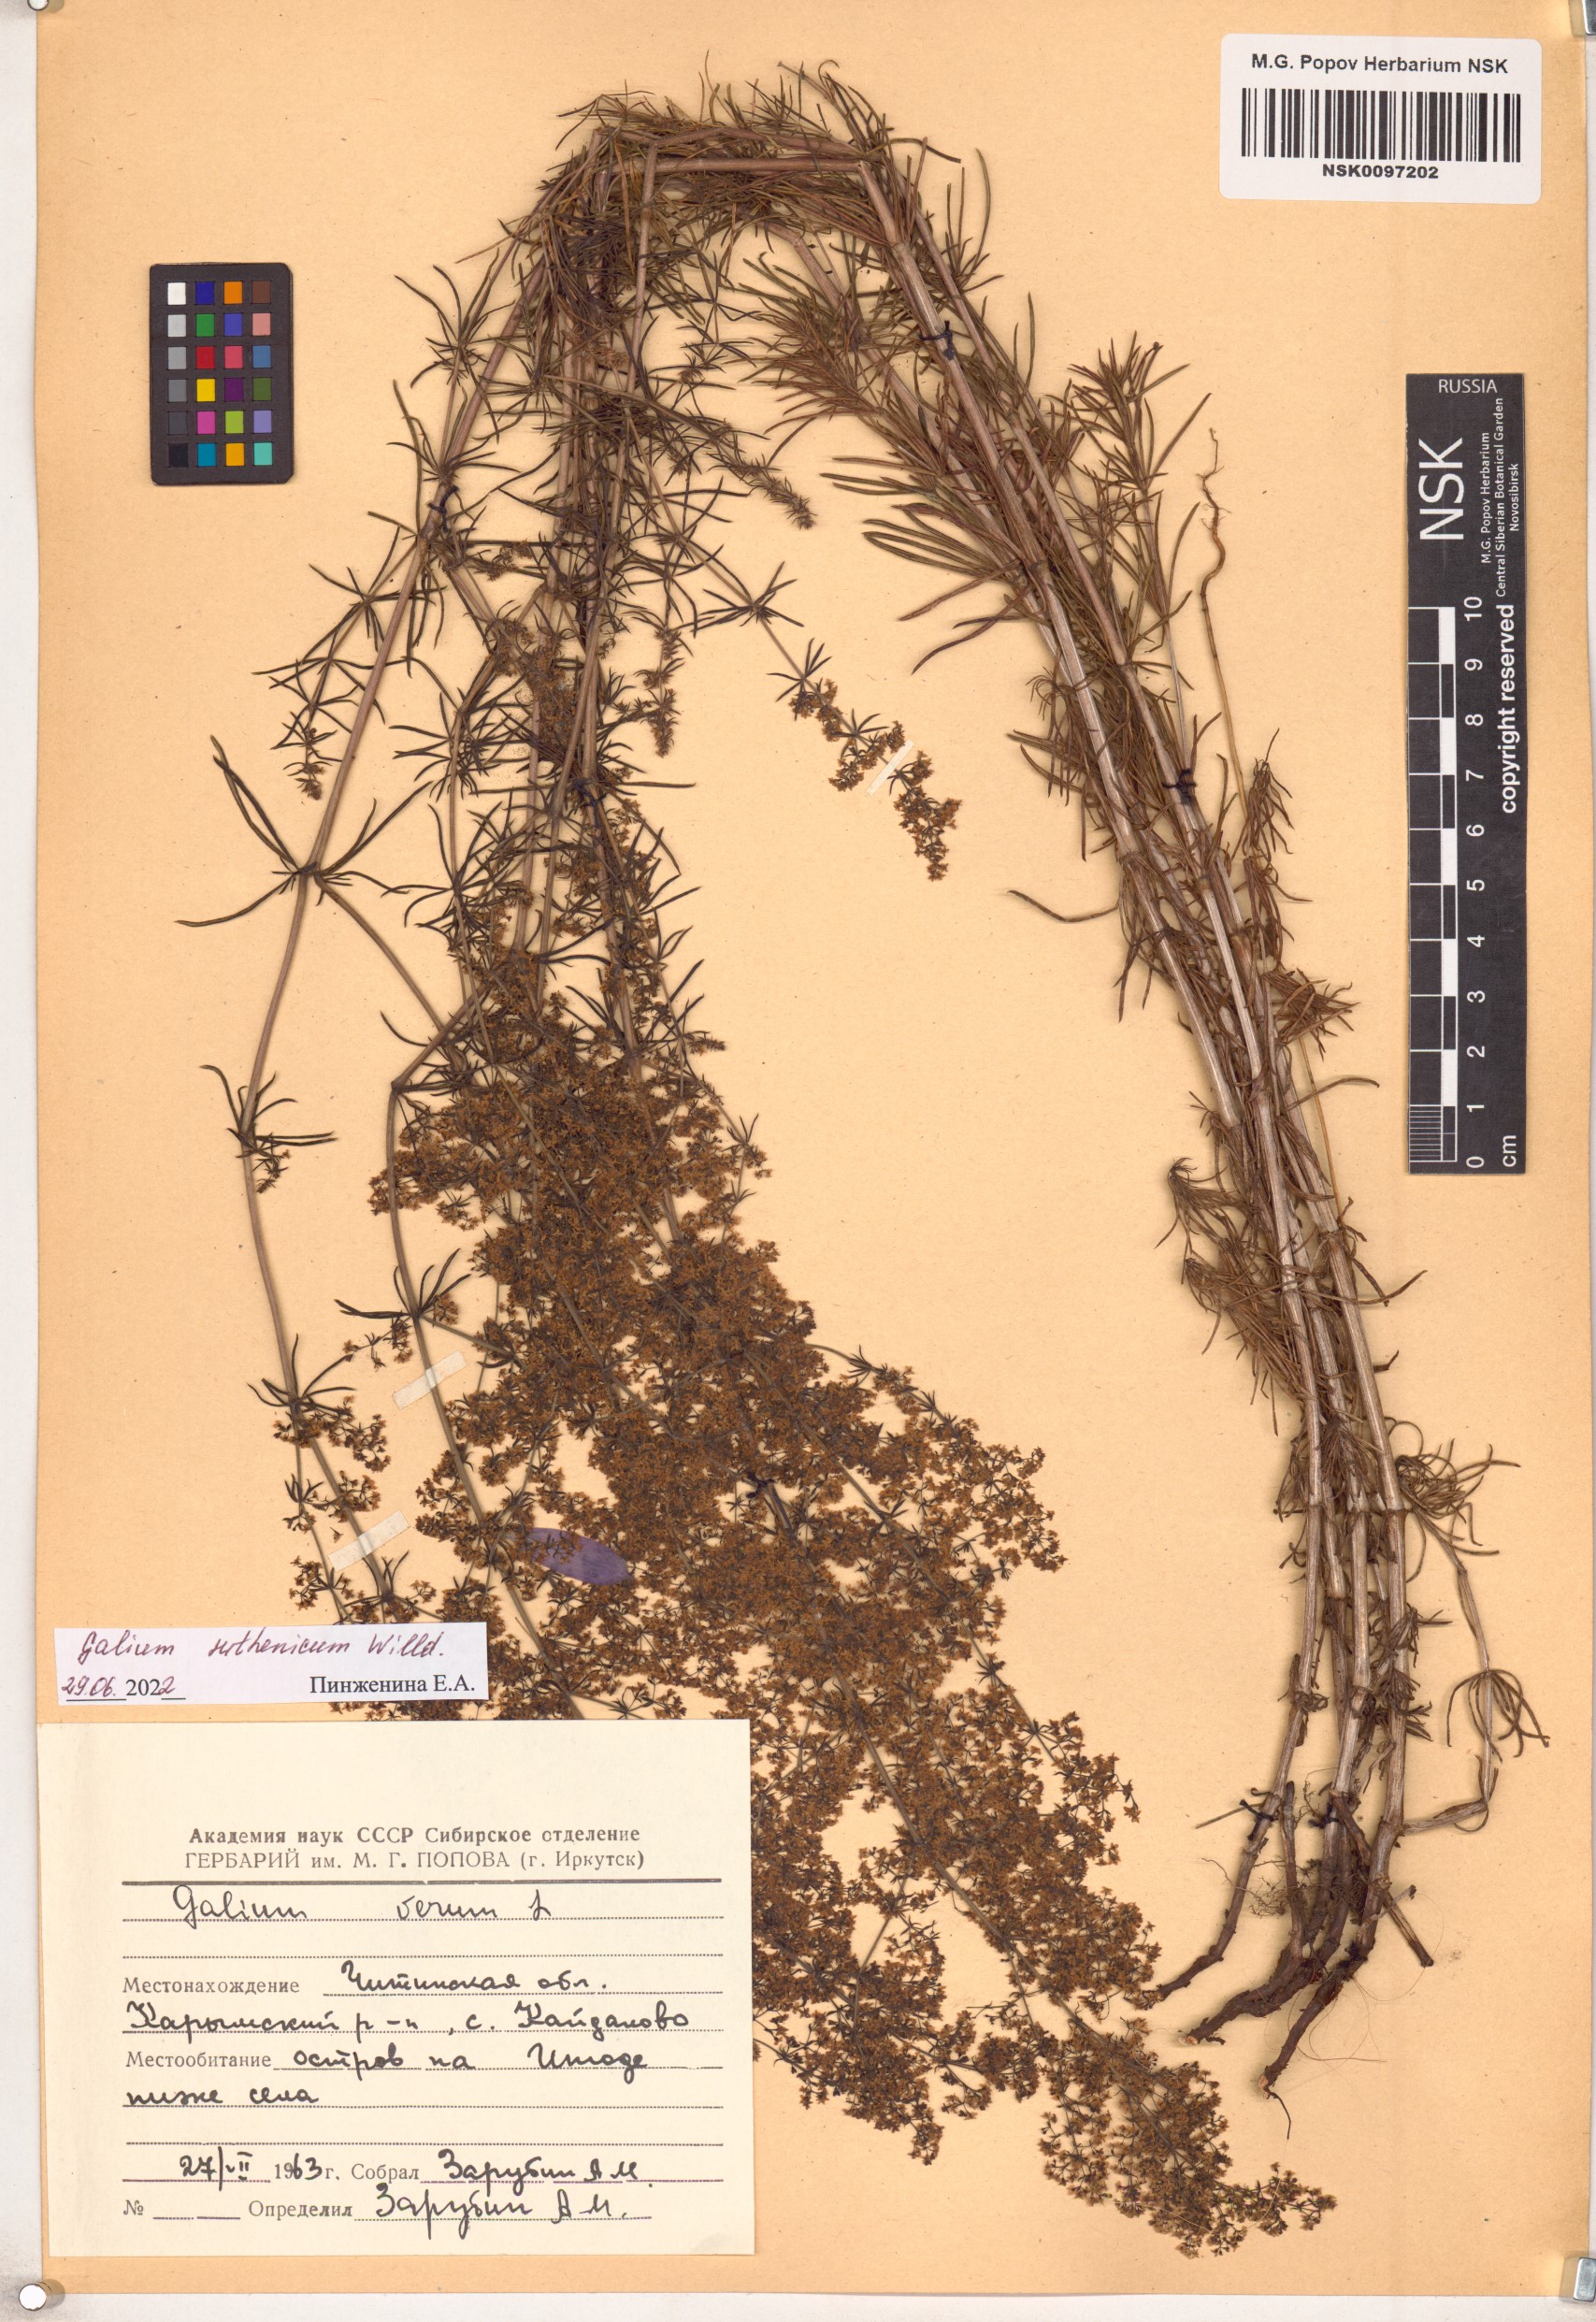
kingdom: Plantae
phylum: Tracheophyta
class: Magnoliopsida
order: Gentianales
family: Rubiaceae
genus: Galium
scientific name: Galium verum
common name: Lady's bedstraw
